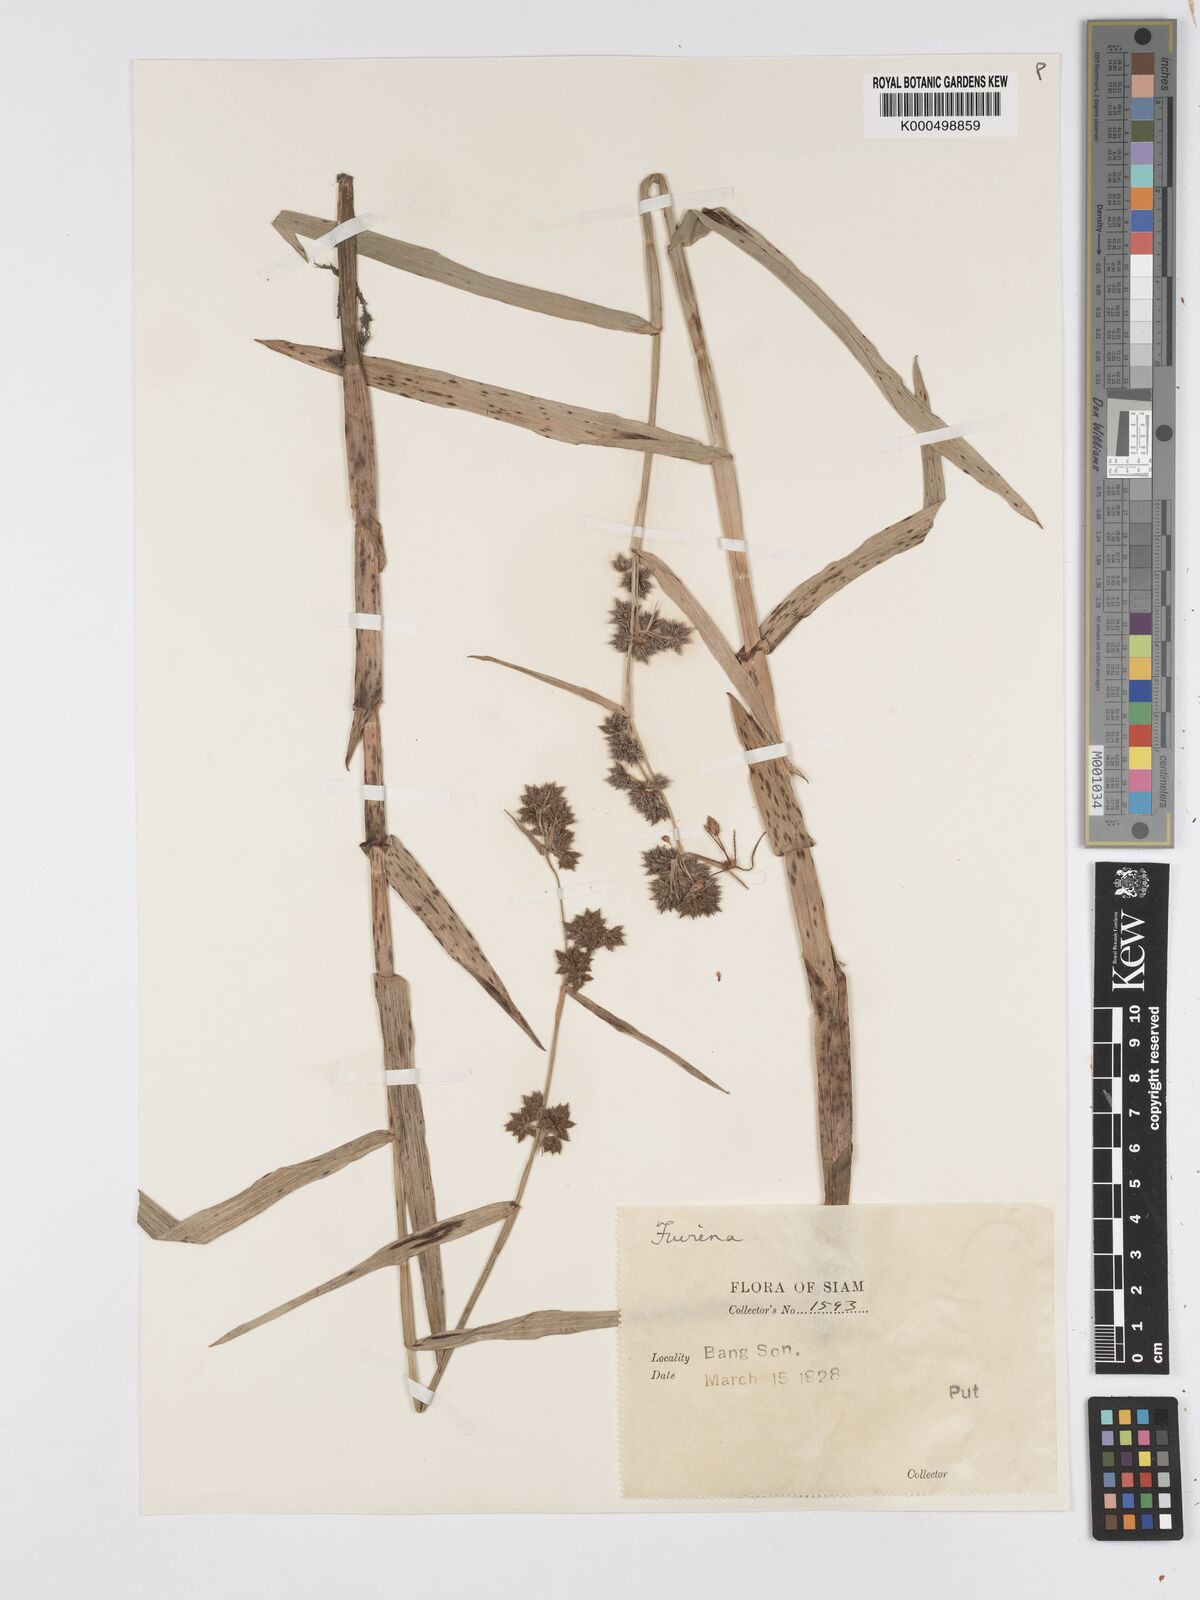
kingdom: Plantae
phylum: Tracheophyta
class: Liliopsida
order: Poales
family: Cyperaceae
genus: Fuirena
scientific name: Fuirena umbellata
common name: Yefen
